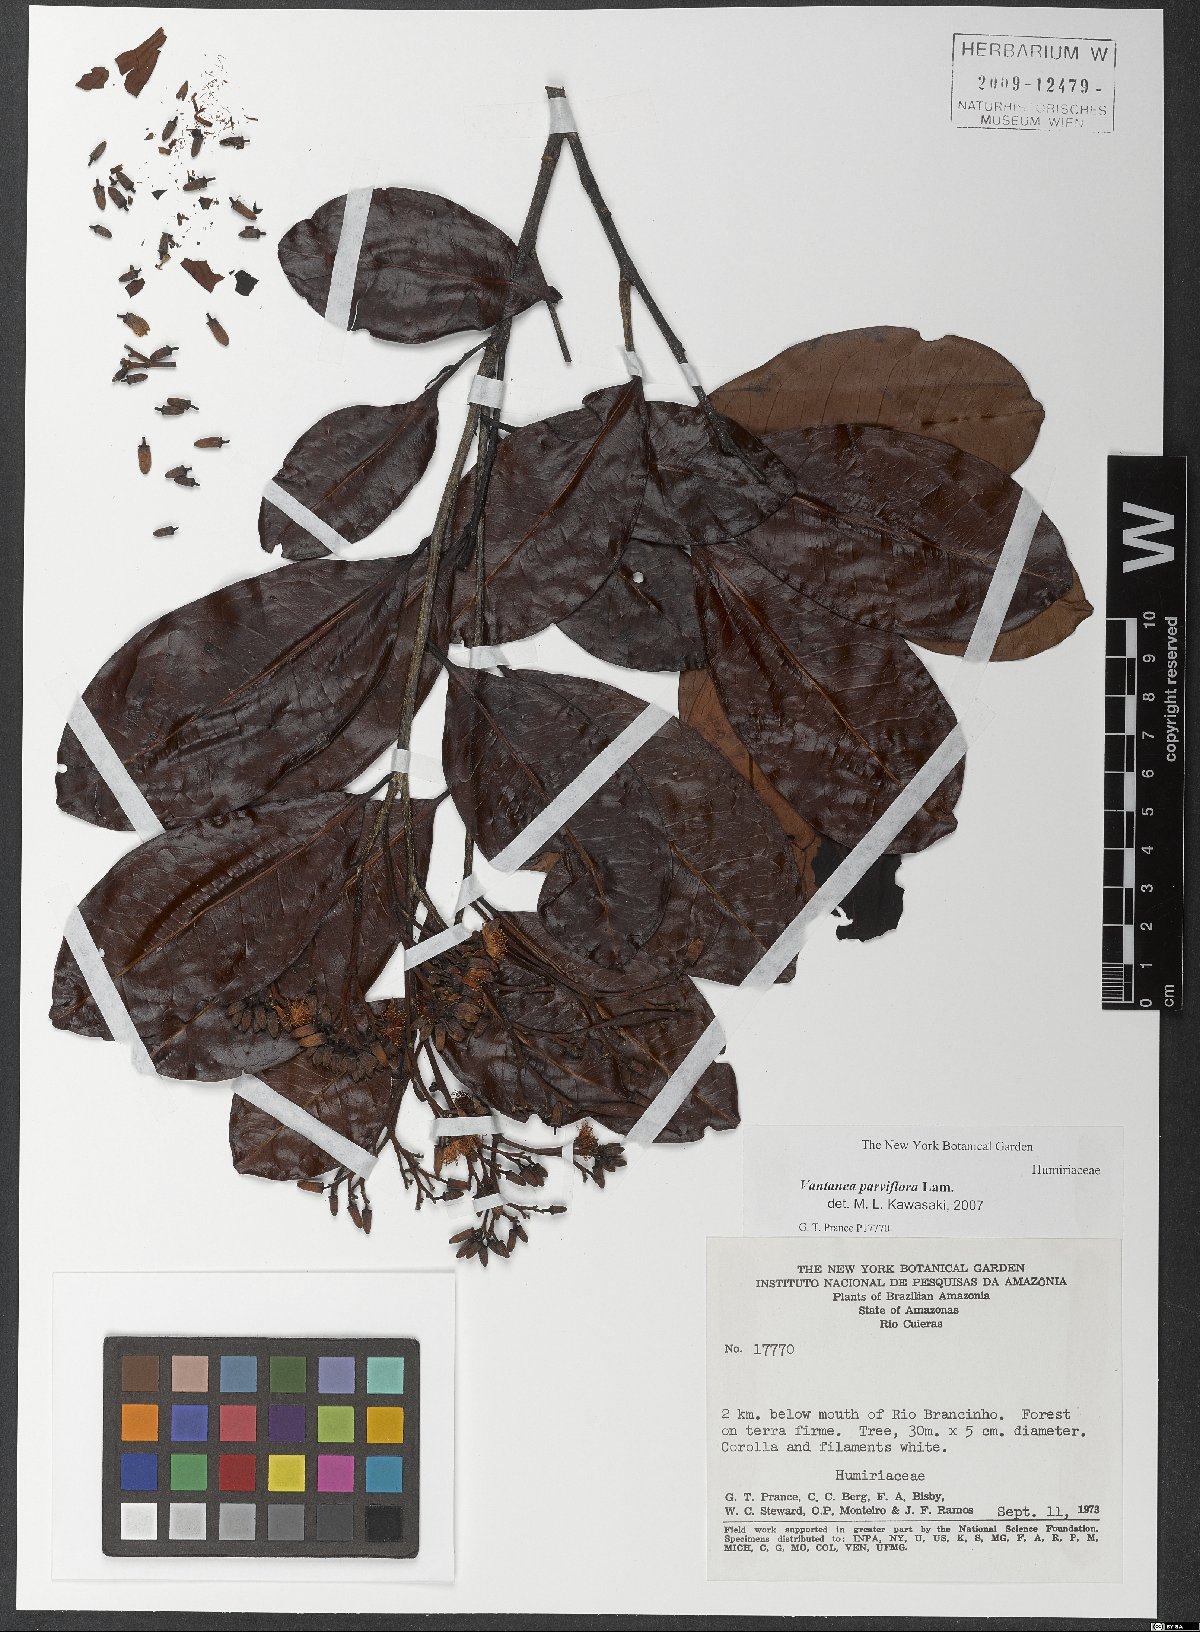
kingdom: Plantae
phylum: Tracheophyta
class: Magnoliopsida
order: Malpighiales
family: Humiriaceae
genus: Vantanea
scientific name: Vantanea parviflora
